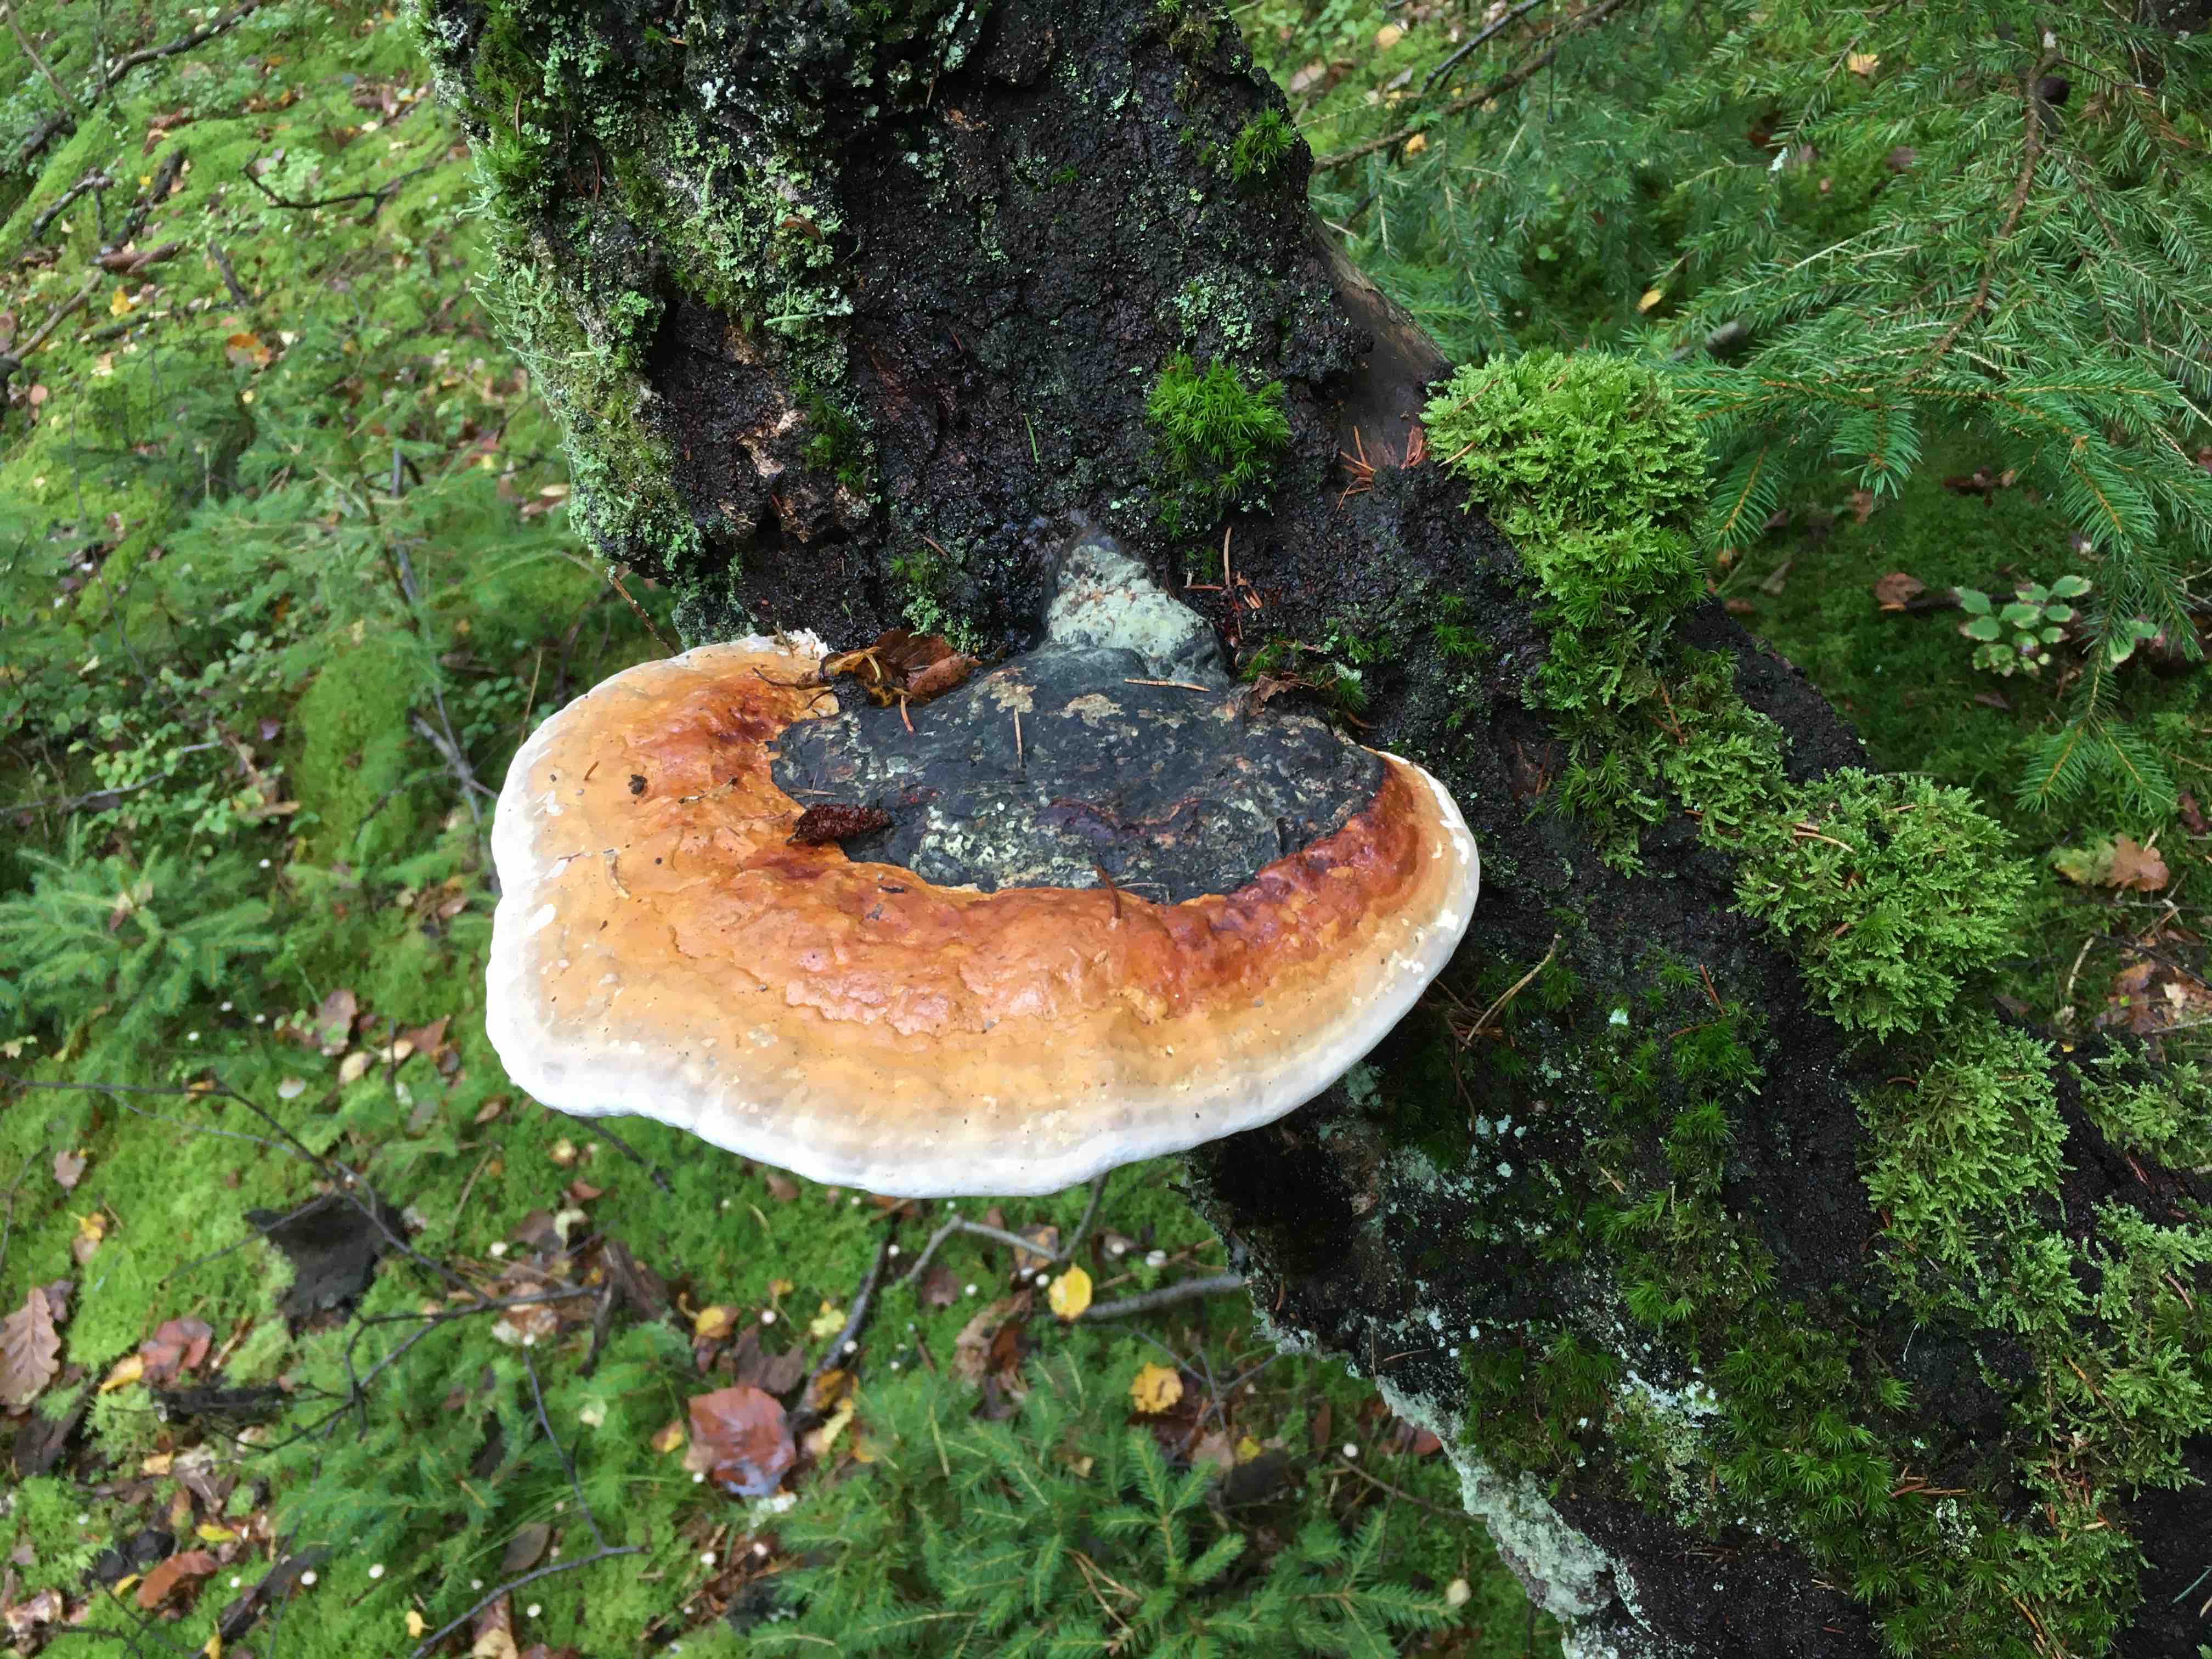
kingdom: Fungi
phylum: Basidiomycota
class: Agaricomycetes
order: Polyporales
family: Fomitopsidaceae
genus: Fomitopsis
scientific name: Fomitopsis pinicola
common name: randbæltet hovporesvamp
